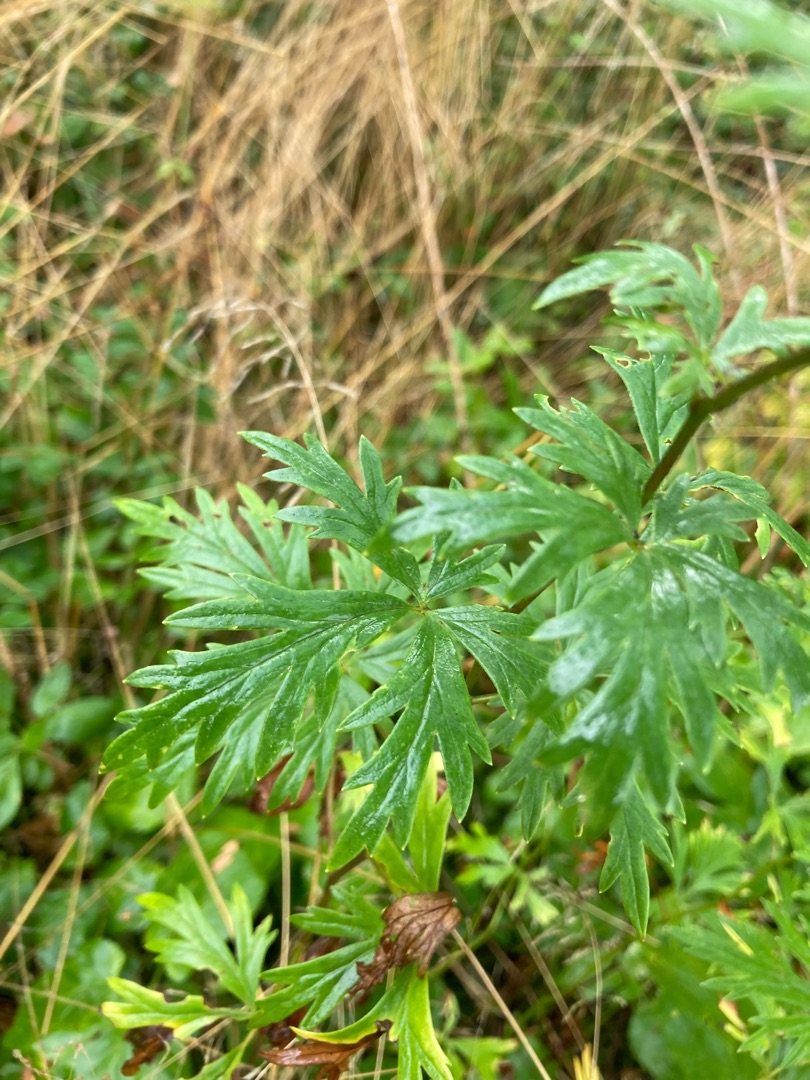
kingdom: Plantae
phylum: Tracheophyta
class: Magnoliopsida
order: Ranunculales
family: Ranunculaceae
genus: Aconitum
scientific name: Aconitum cammarum
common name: Have-stormhat
